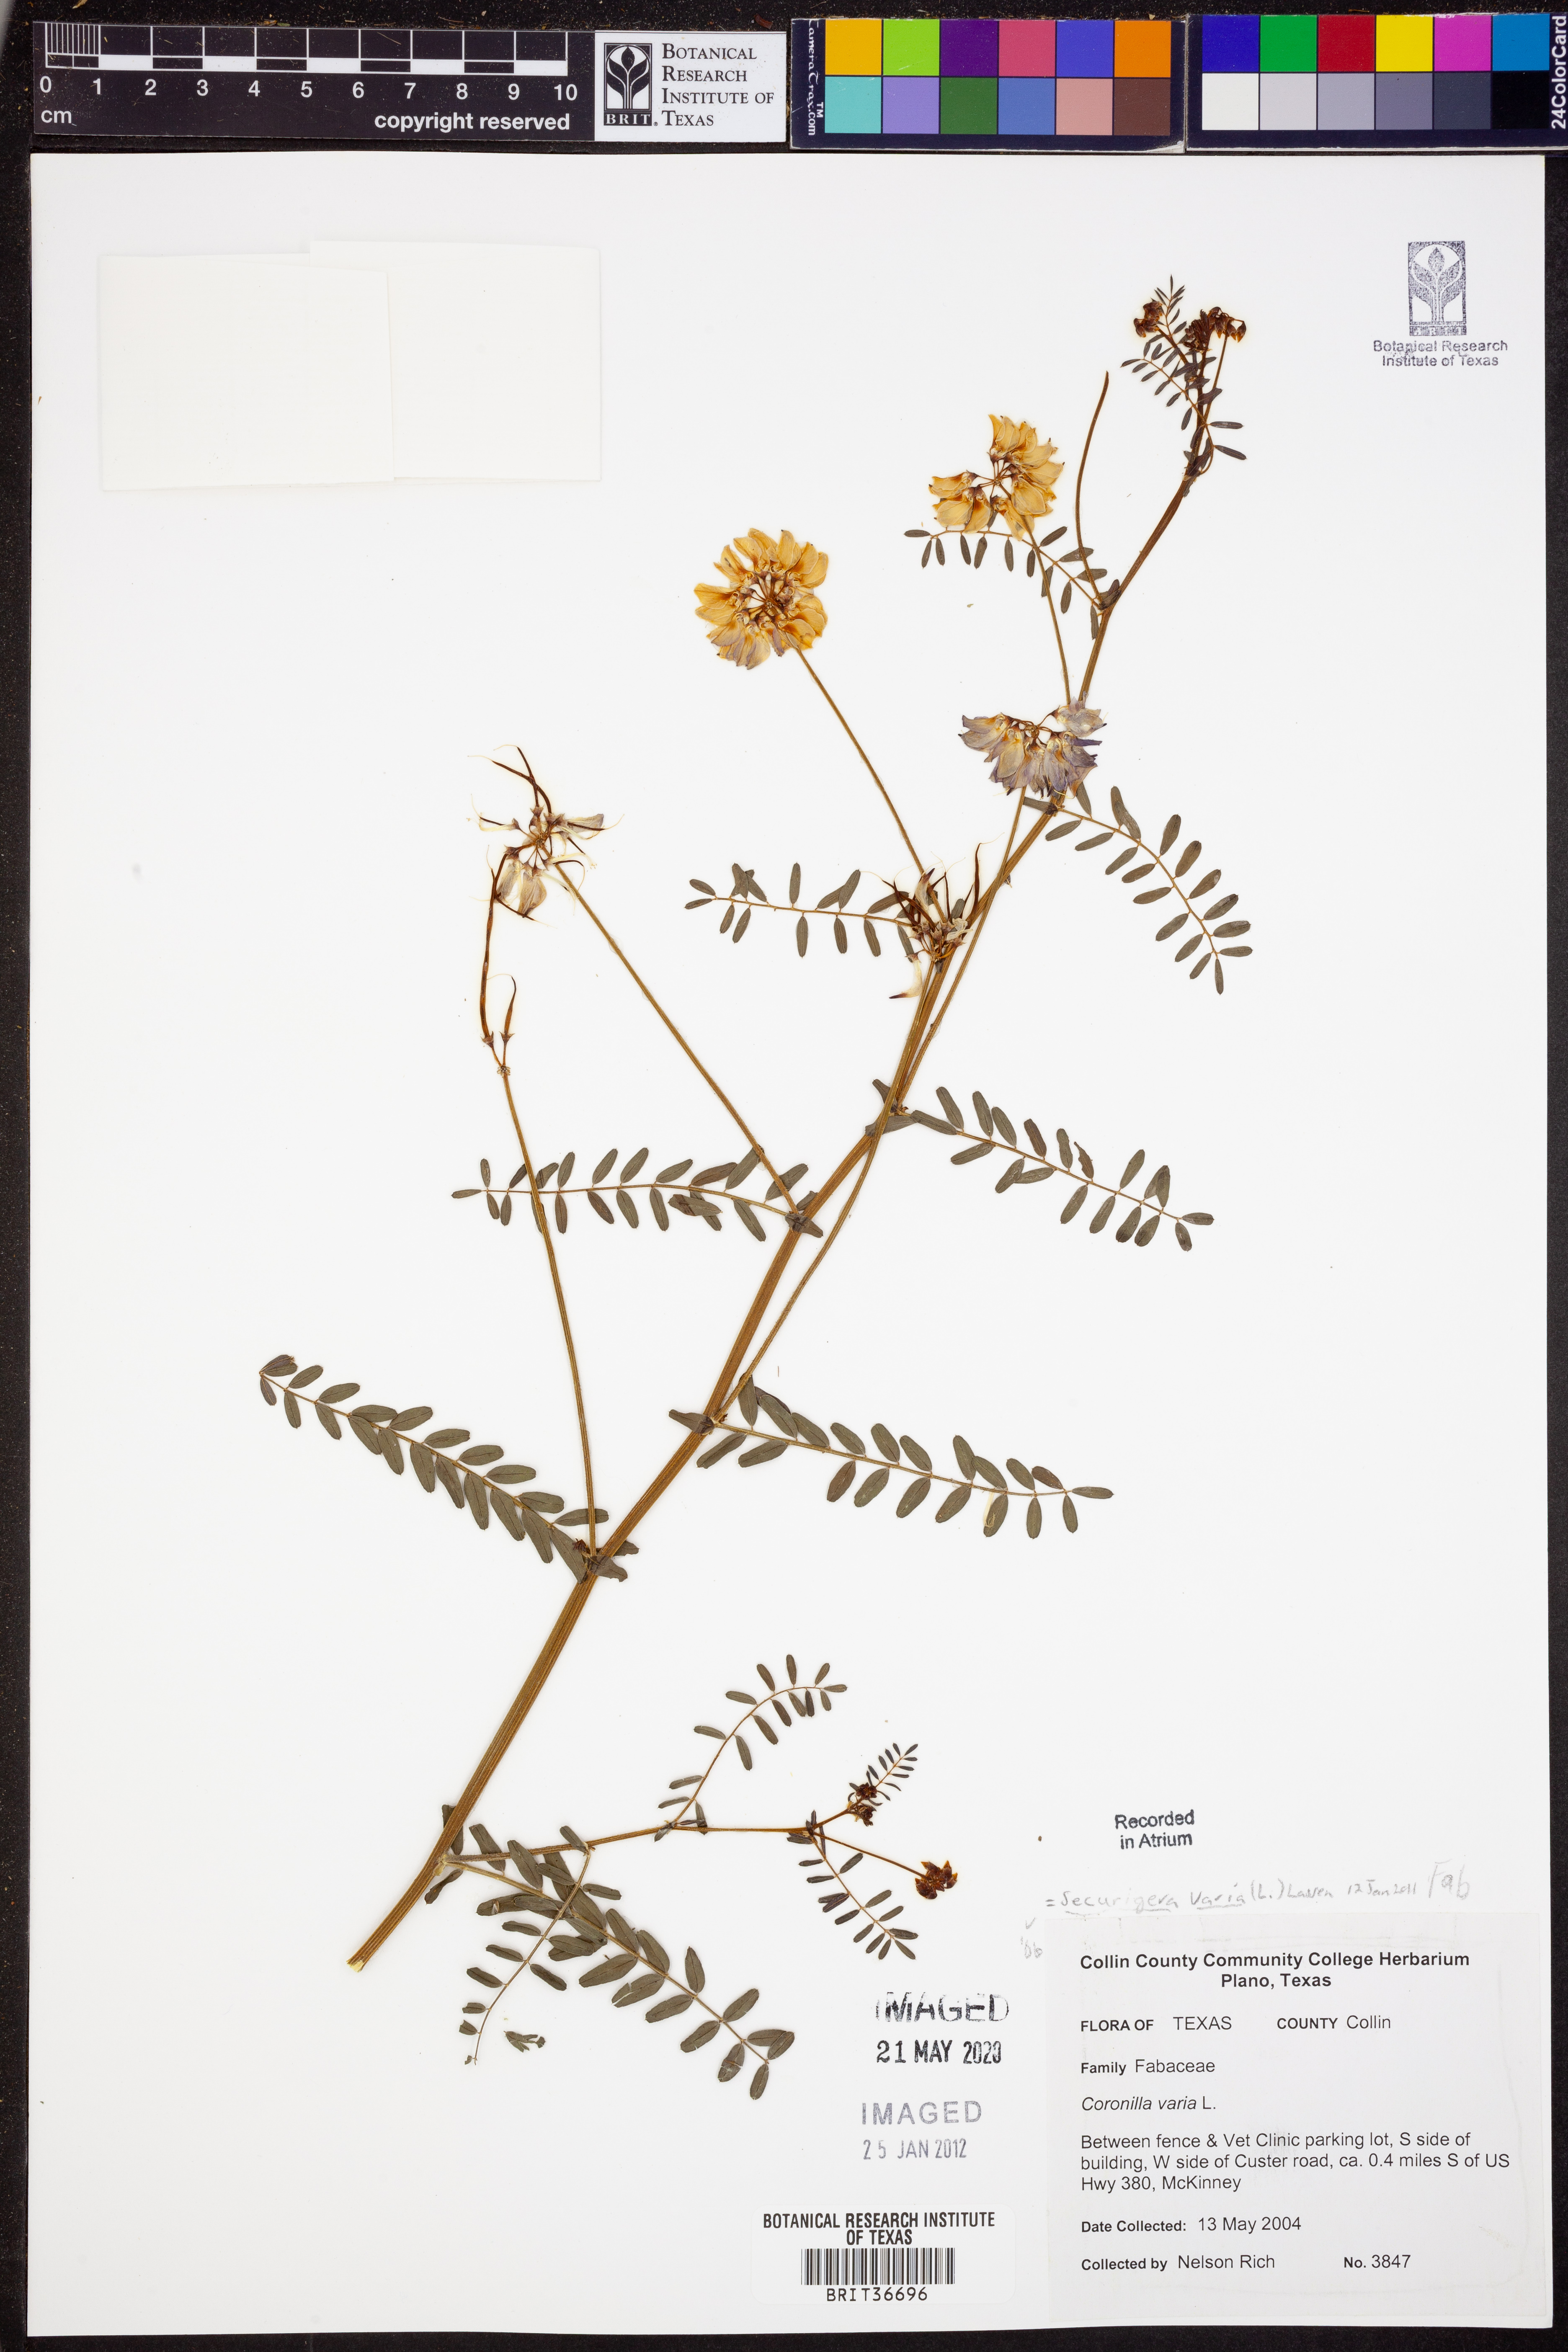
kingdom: Plantae
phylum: Tracheophyta
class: Magnoliopsida
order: Fabales
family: Fabaceae
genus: Coronilla
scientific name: Coronilla varia
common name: Crownvetch
